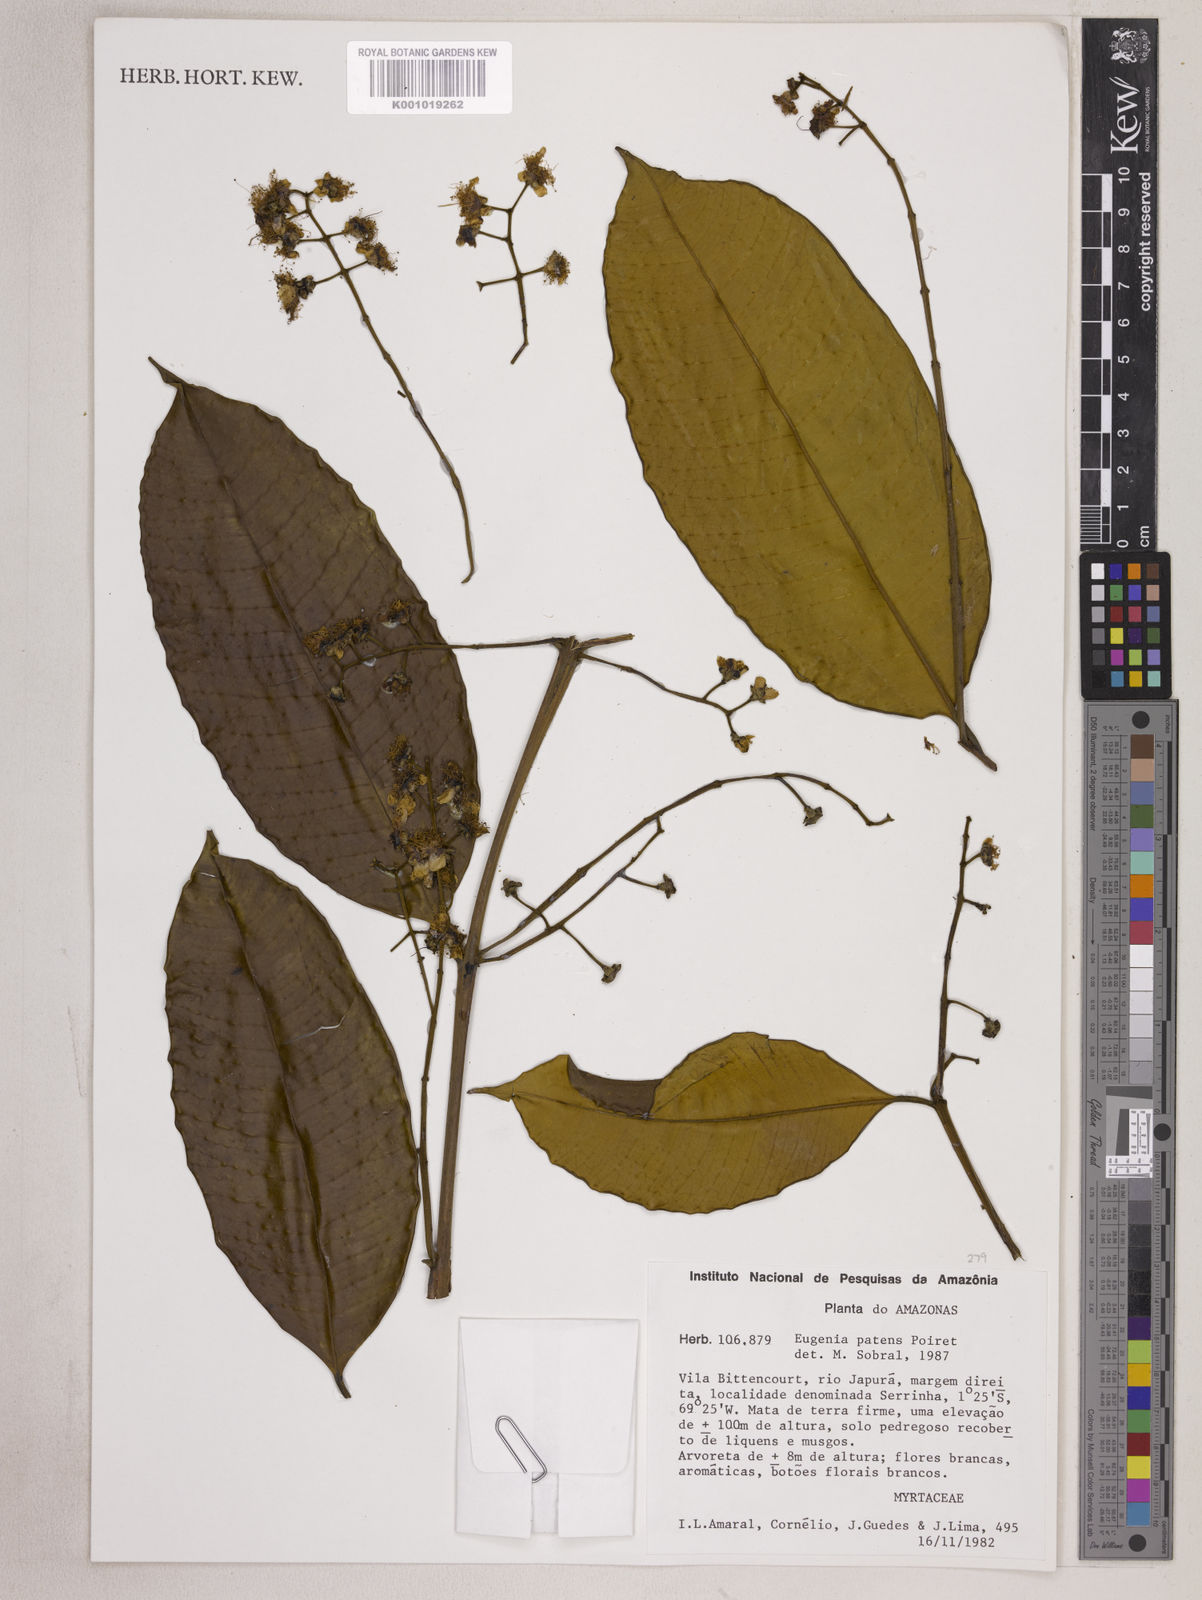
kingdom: Plantae
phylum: Tracheophyta
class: Magnoliopsida
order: Myrtales
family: Myrtaceae
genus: Eugenia
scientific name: Eugenia patens
